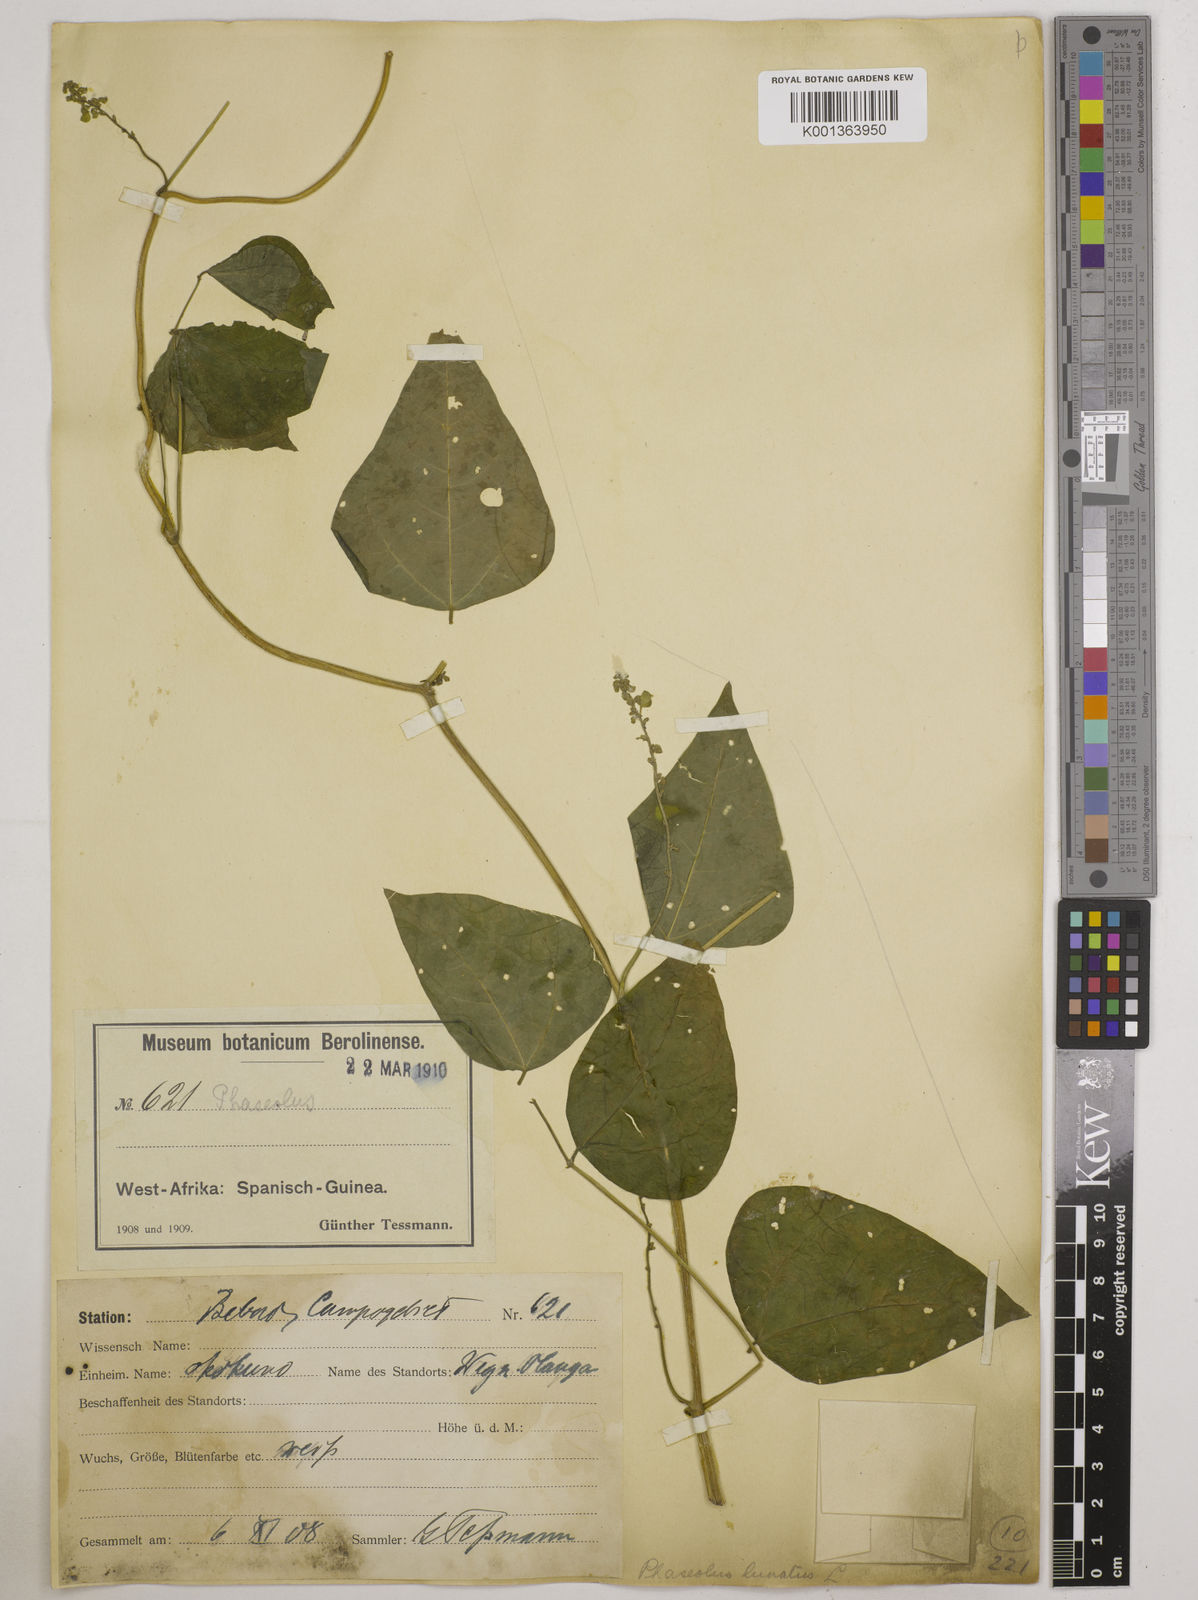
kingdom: Plantae
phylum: Tracheophyta
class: Magnoliopsida
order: Fabales
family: Fabaceae
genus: Phaseolus
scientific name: Phaseolus lunatus
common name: Sieva bean
